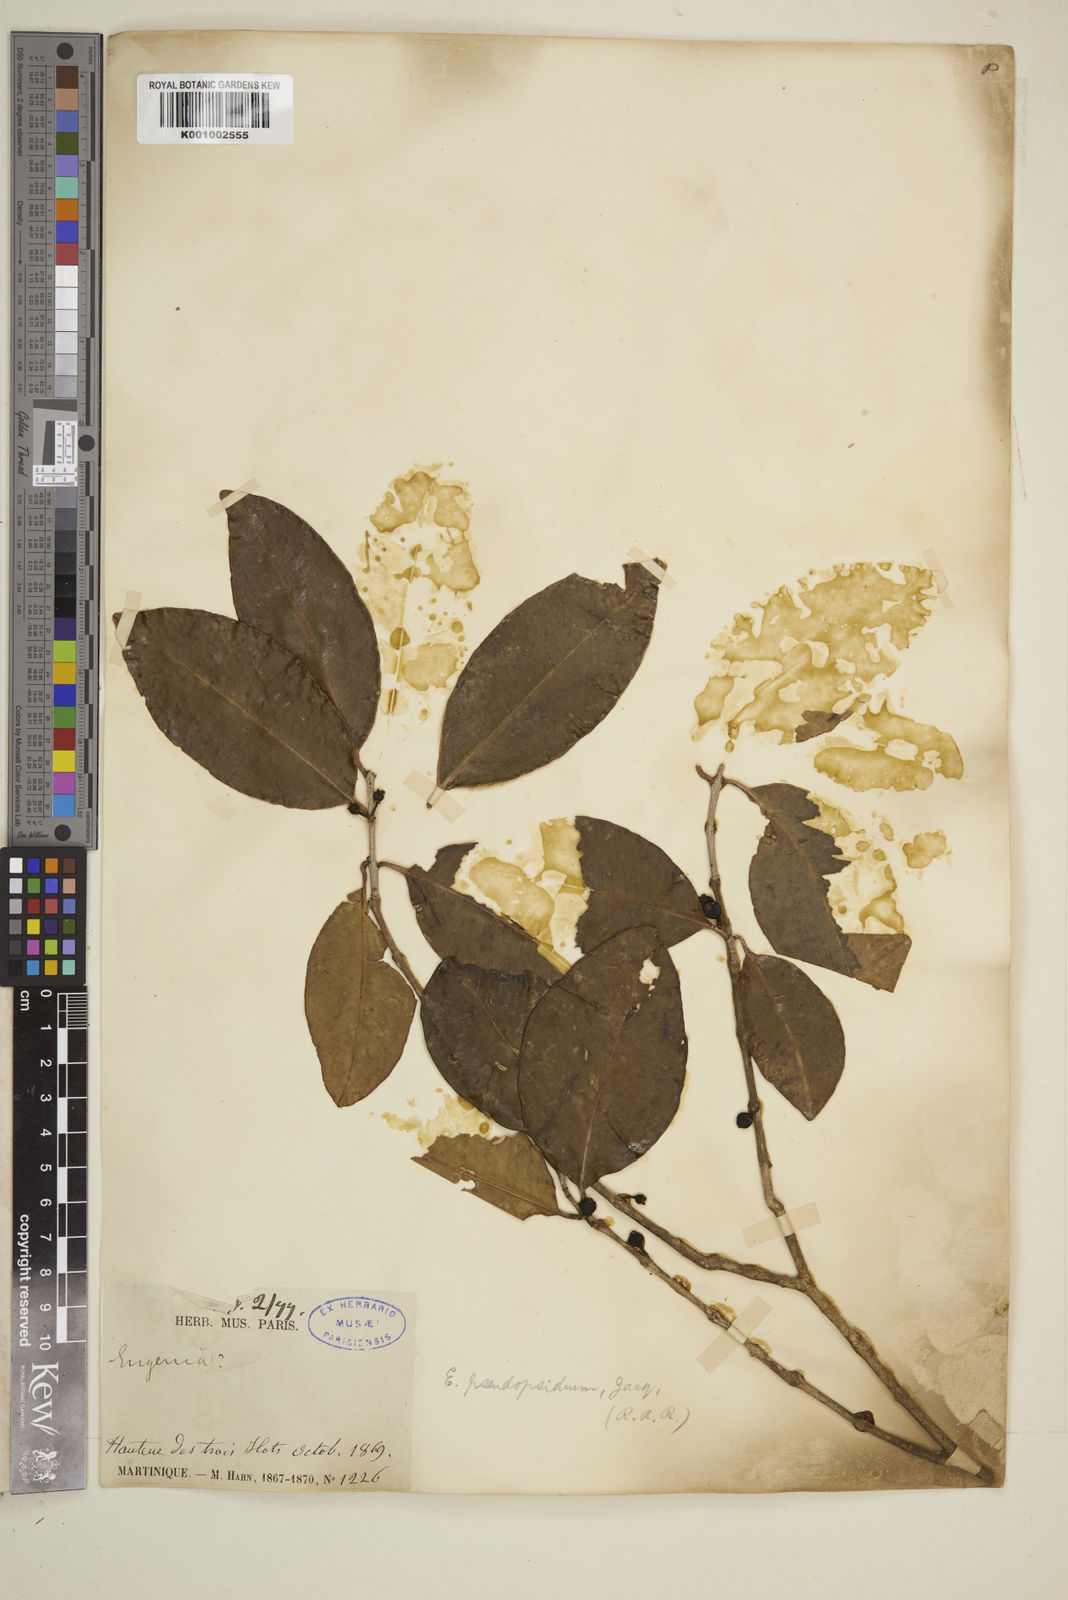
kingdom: Plantae
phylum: Tracheophyta
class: Magnoliopsida
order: Myrtales
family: Myrtaceae
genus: Eugenia
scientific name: Eugenia lambertiana
